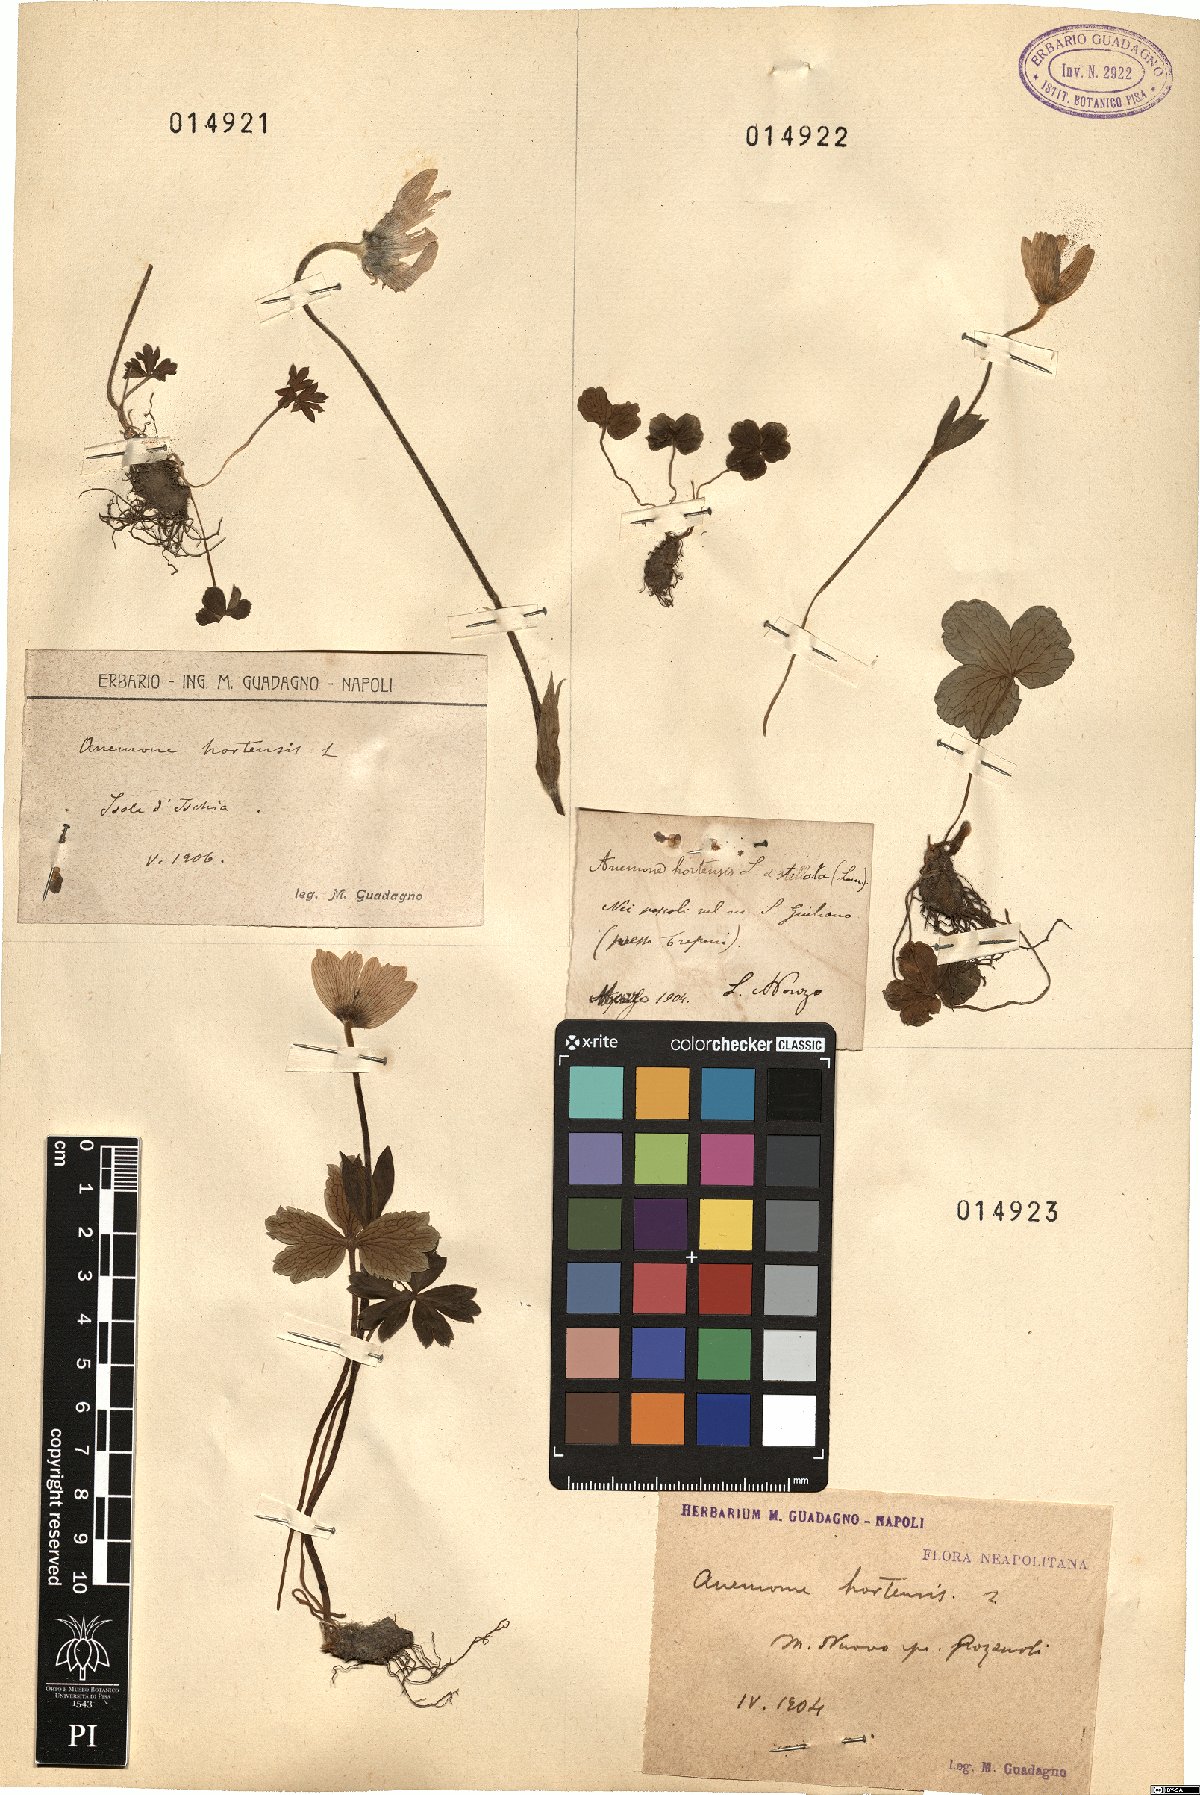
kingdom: Plantae
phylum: Tracheophyta
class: Magnoliopsida
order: Ranunculales
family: Ranunculaceae
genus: Anemone
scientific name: Anemone hortensis
